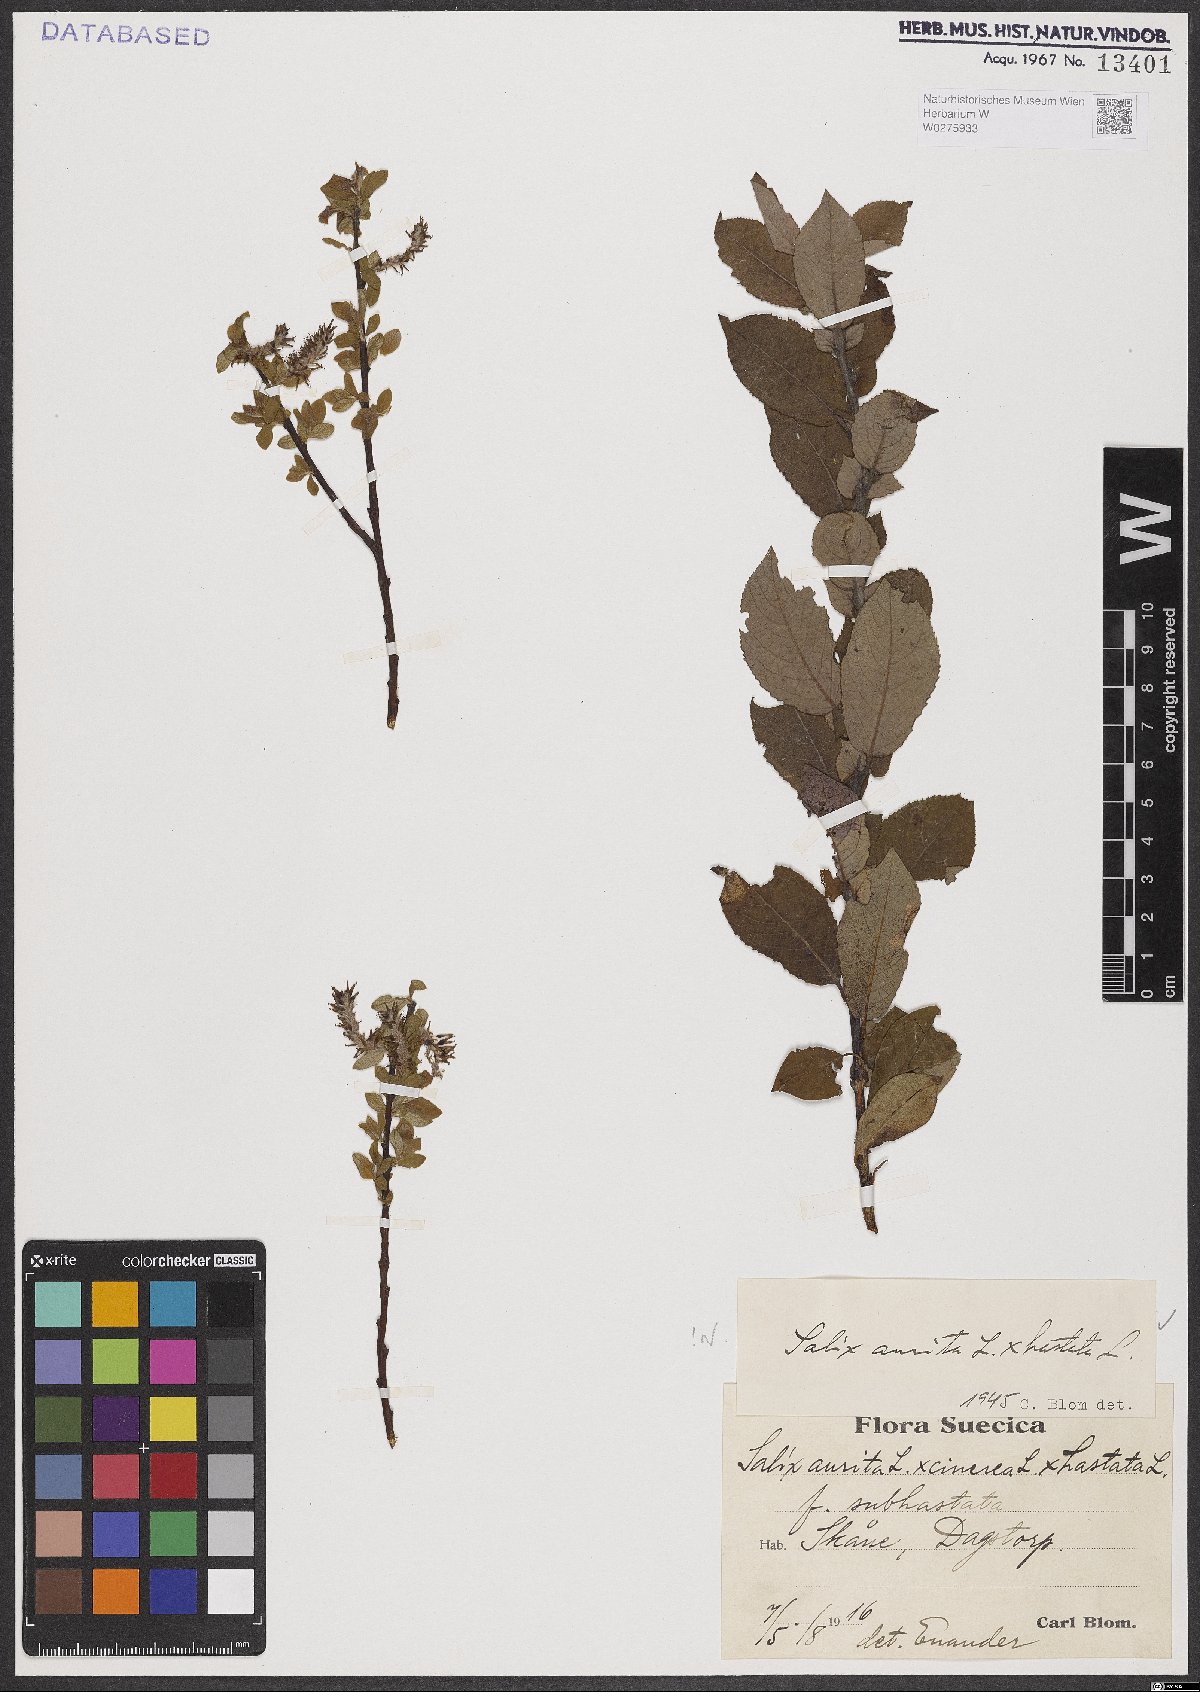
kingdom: Plantae
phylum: Tracheophyta
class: Magnoliopsida
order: Malpighiales
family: Salicaceae
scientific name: Salicaceae
